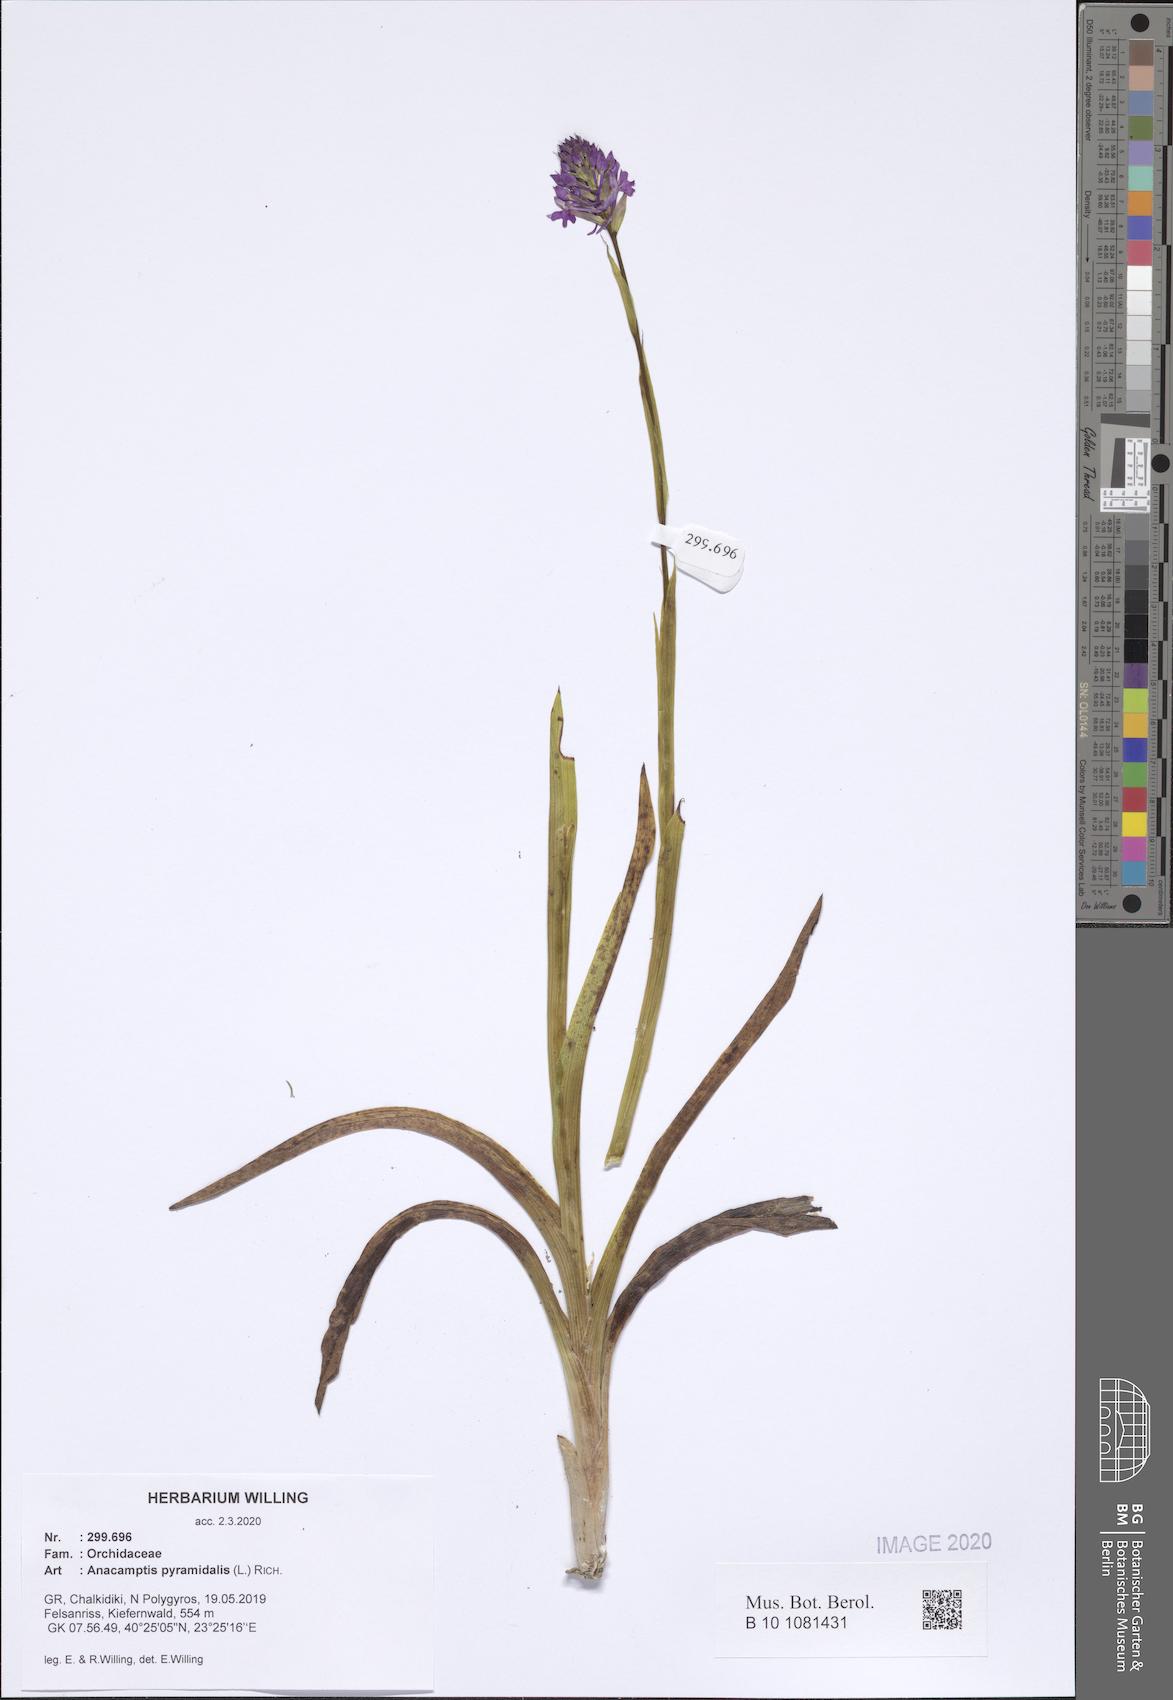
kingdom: Plantae
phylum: Tracheophyta
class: Liliopsida
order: Asparagales
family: Orchidaceae
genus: Anacamptis
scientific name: Anacamptis pyramidalis
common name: Pyramidal orchid
